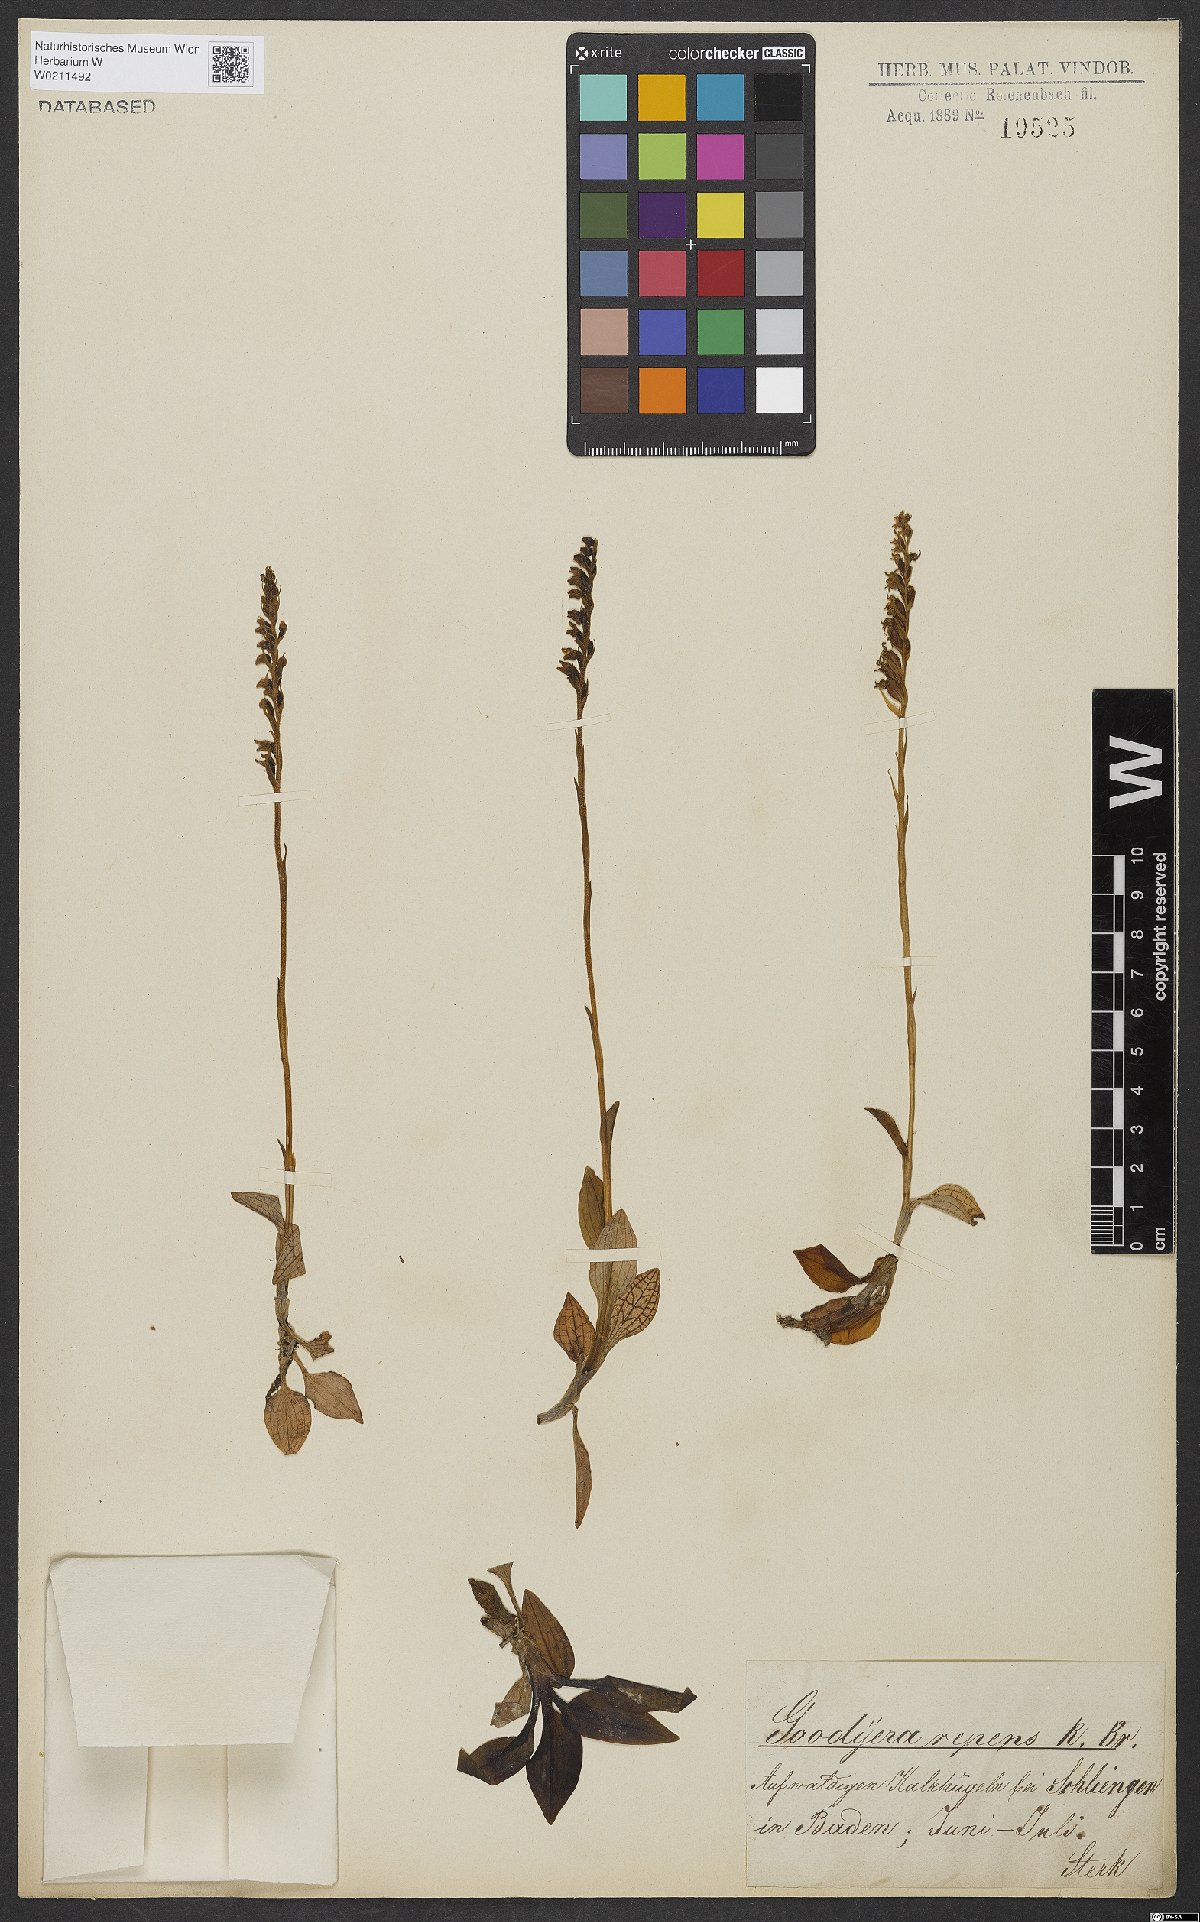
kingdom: Plantae
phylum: Tracheophyta
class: Liliopsida
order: Asparagales
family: Orchidaceae
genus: Goodyera
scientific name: Goodyera repens
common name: Creeping lady's-tresses
